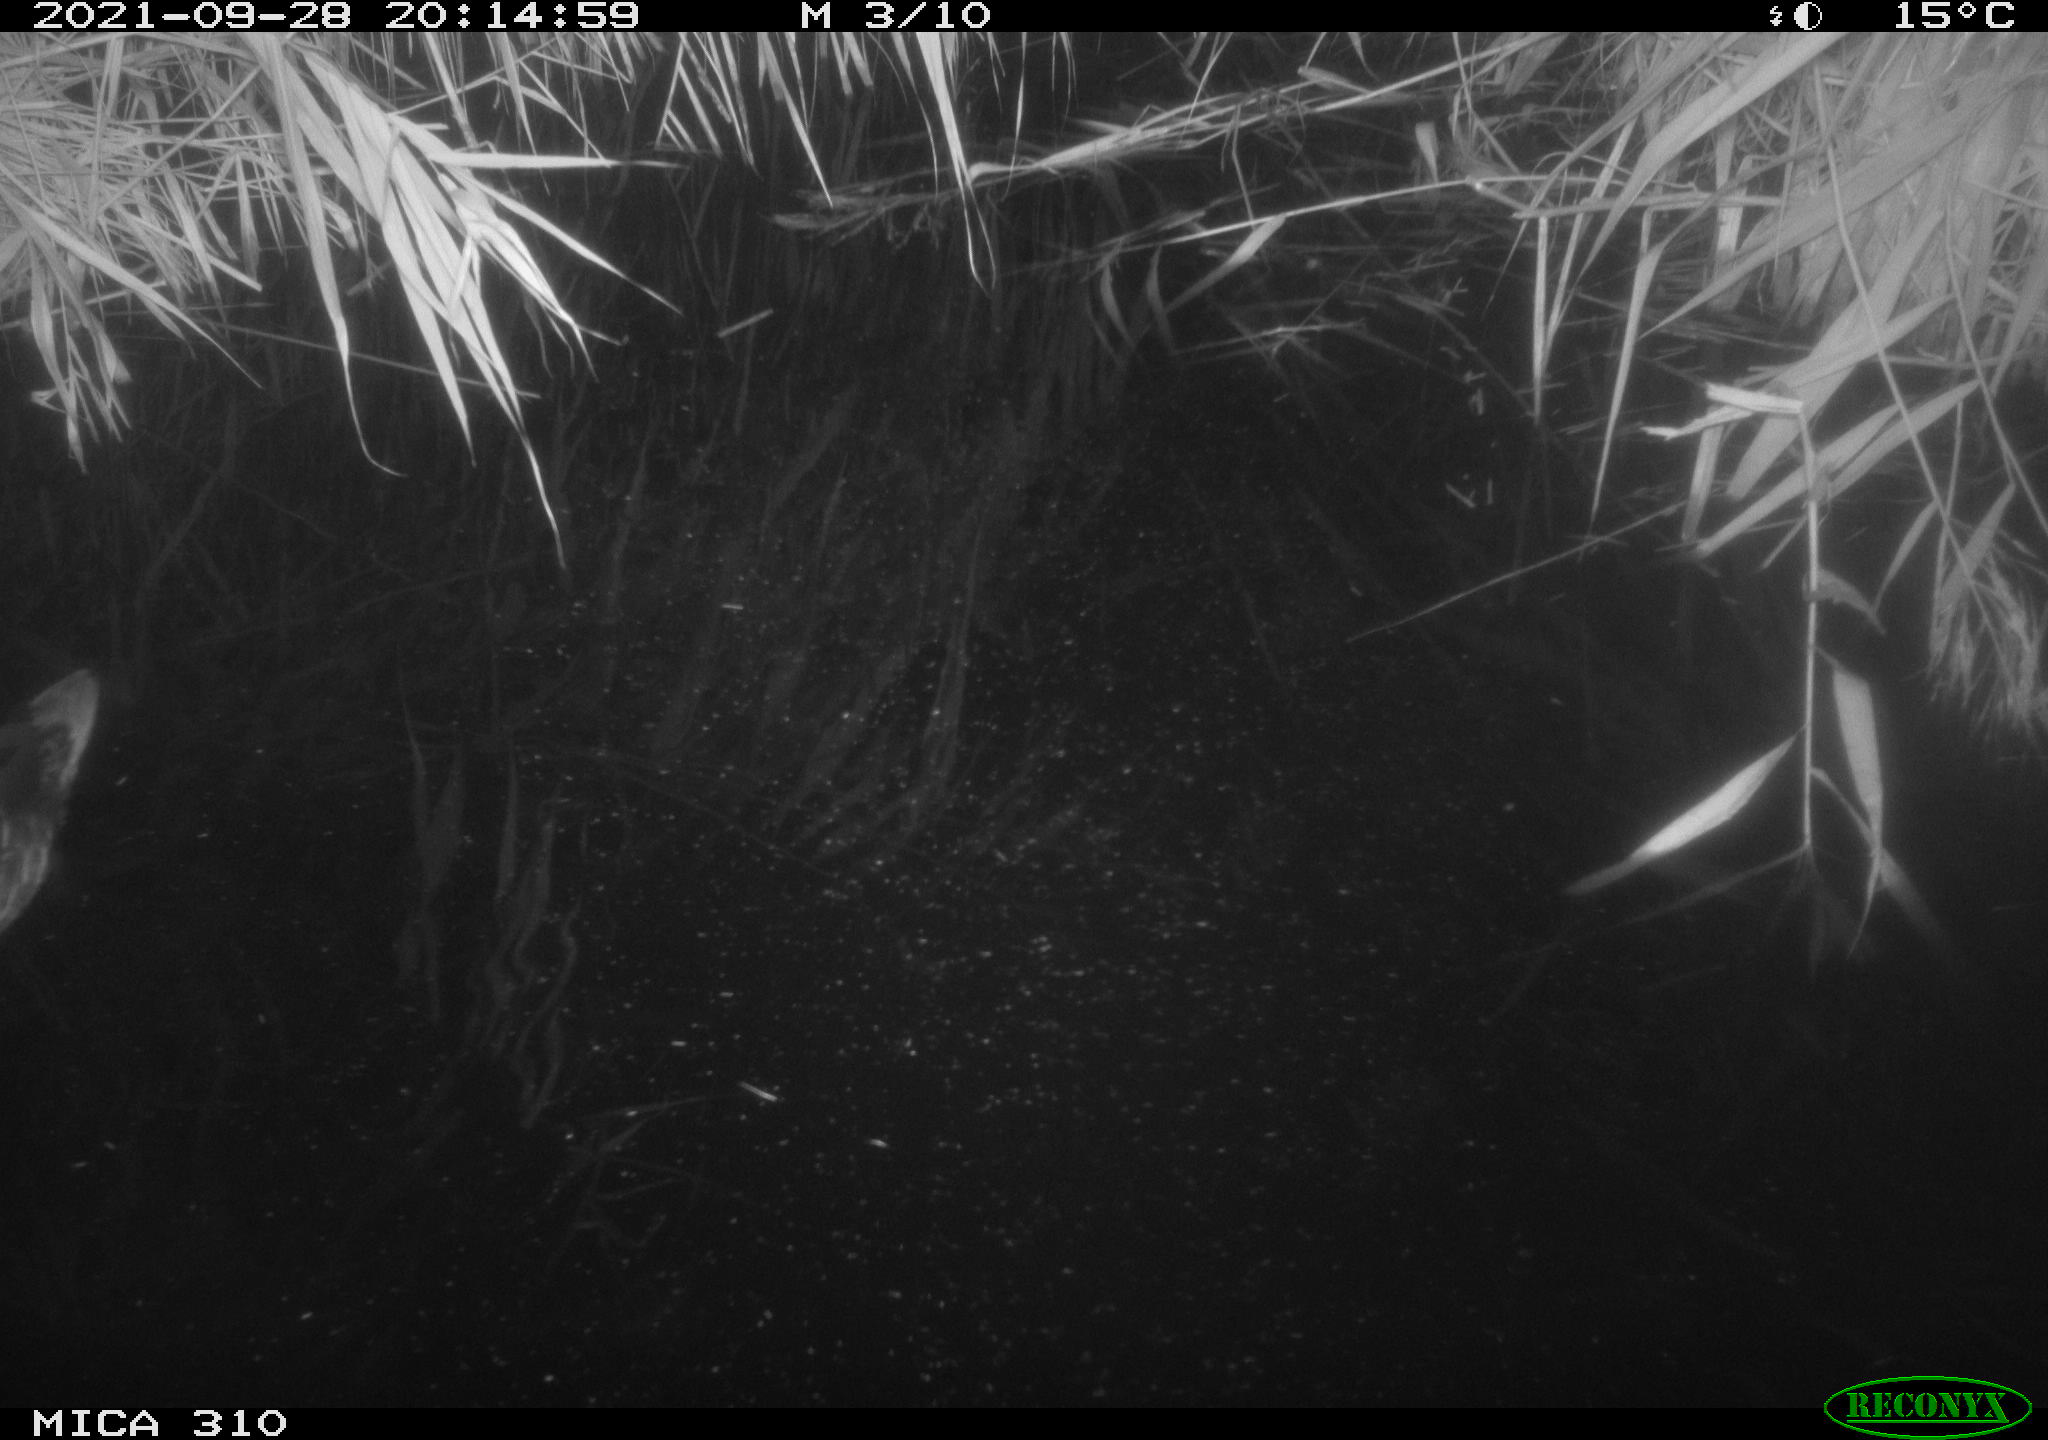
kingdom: Animalia
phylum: Chordata
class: Aves
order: Anseriformes
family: Anatidae
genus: Mareca
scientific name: Mareca strepera
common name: Gadwall
